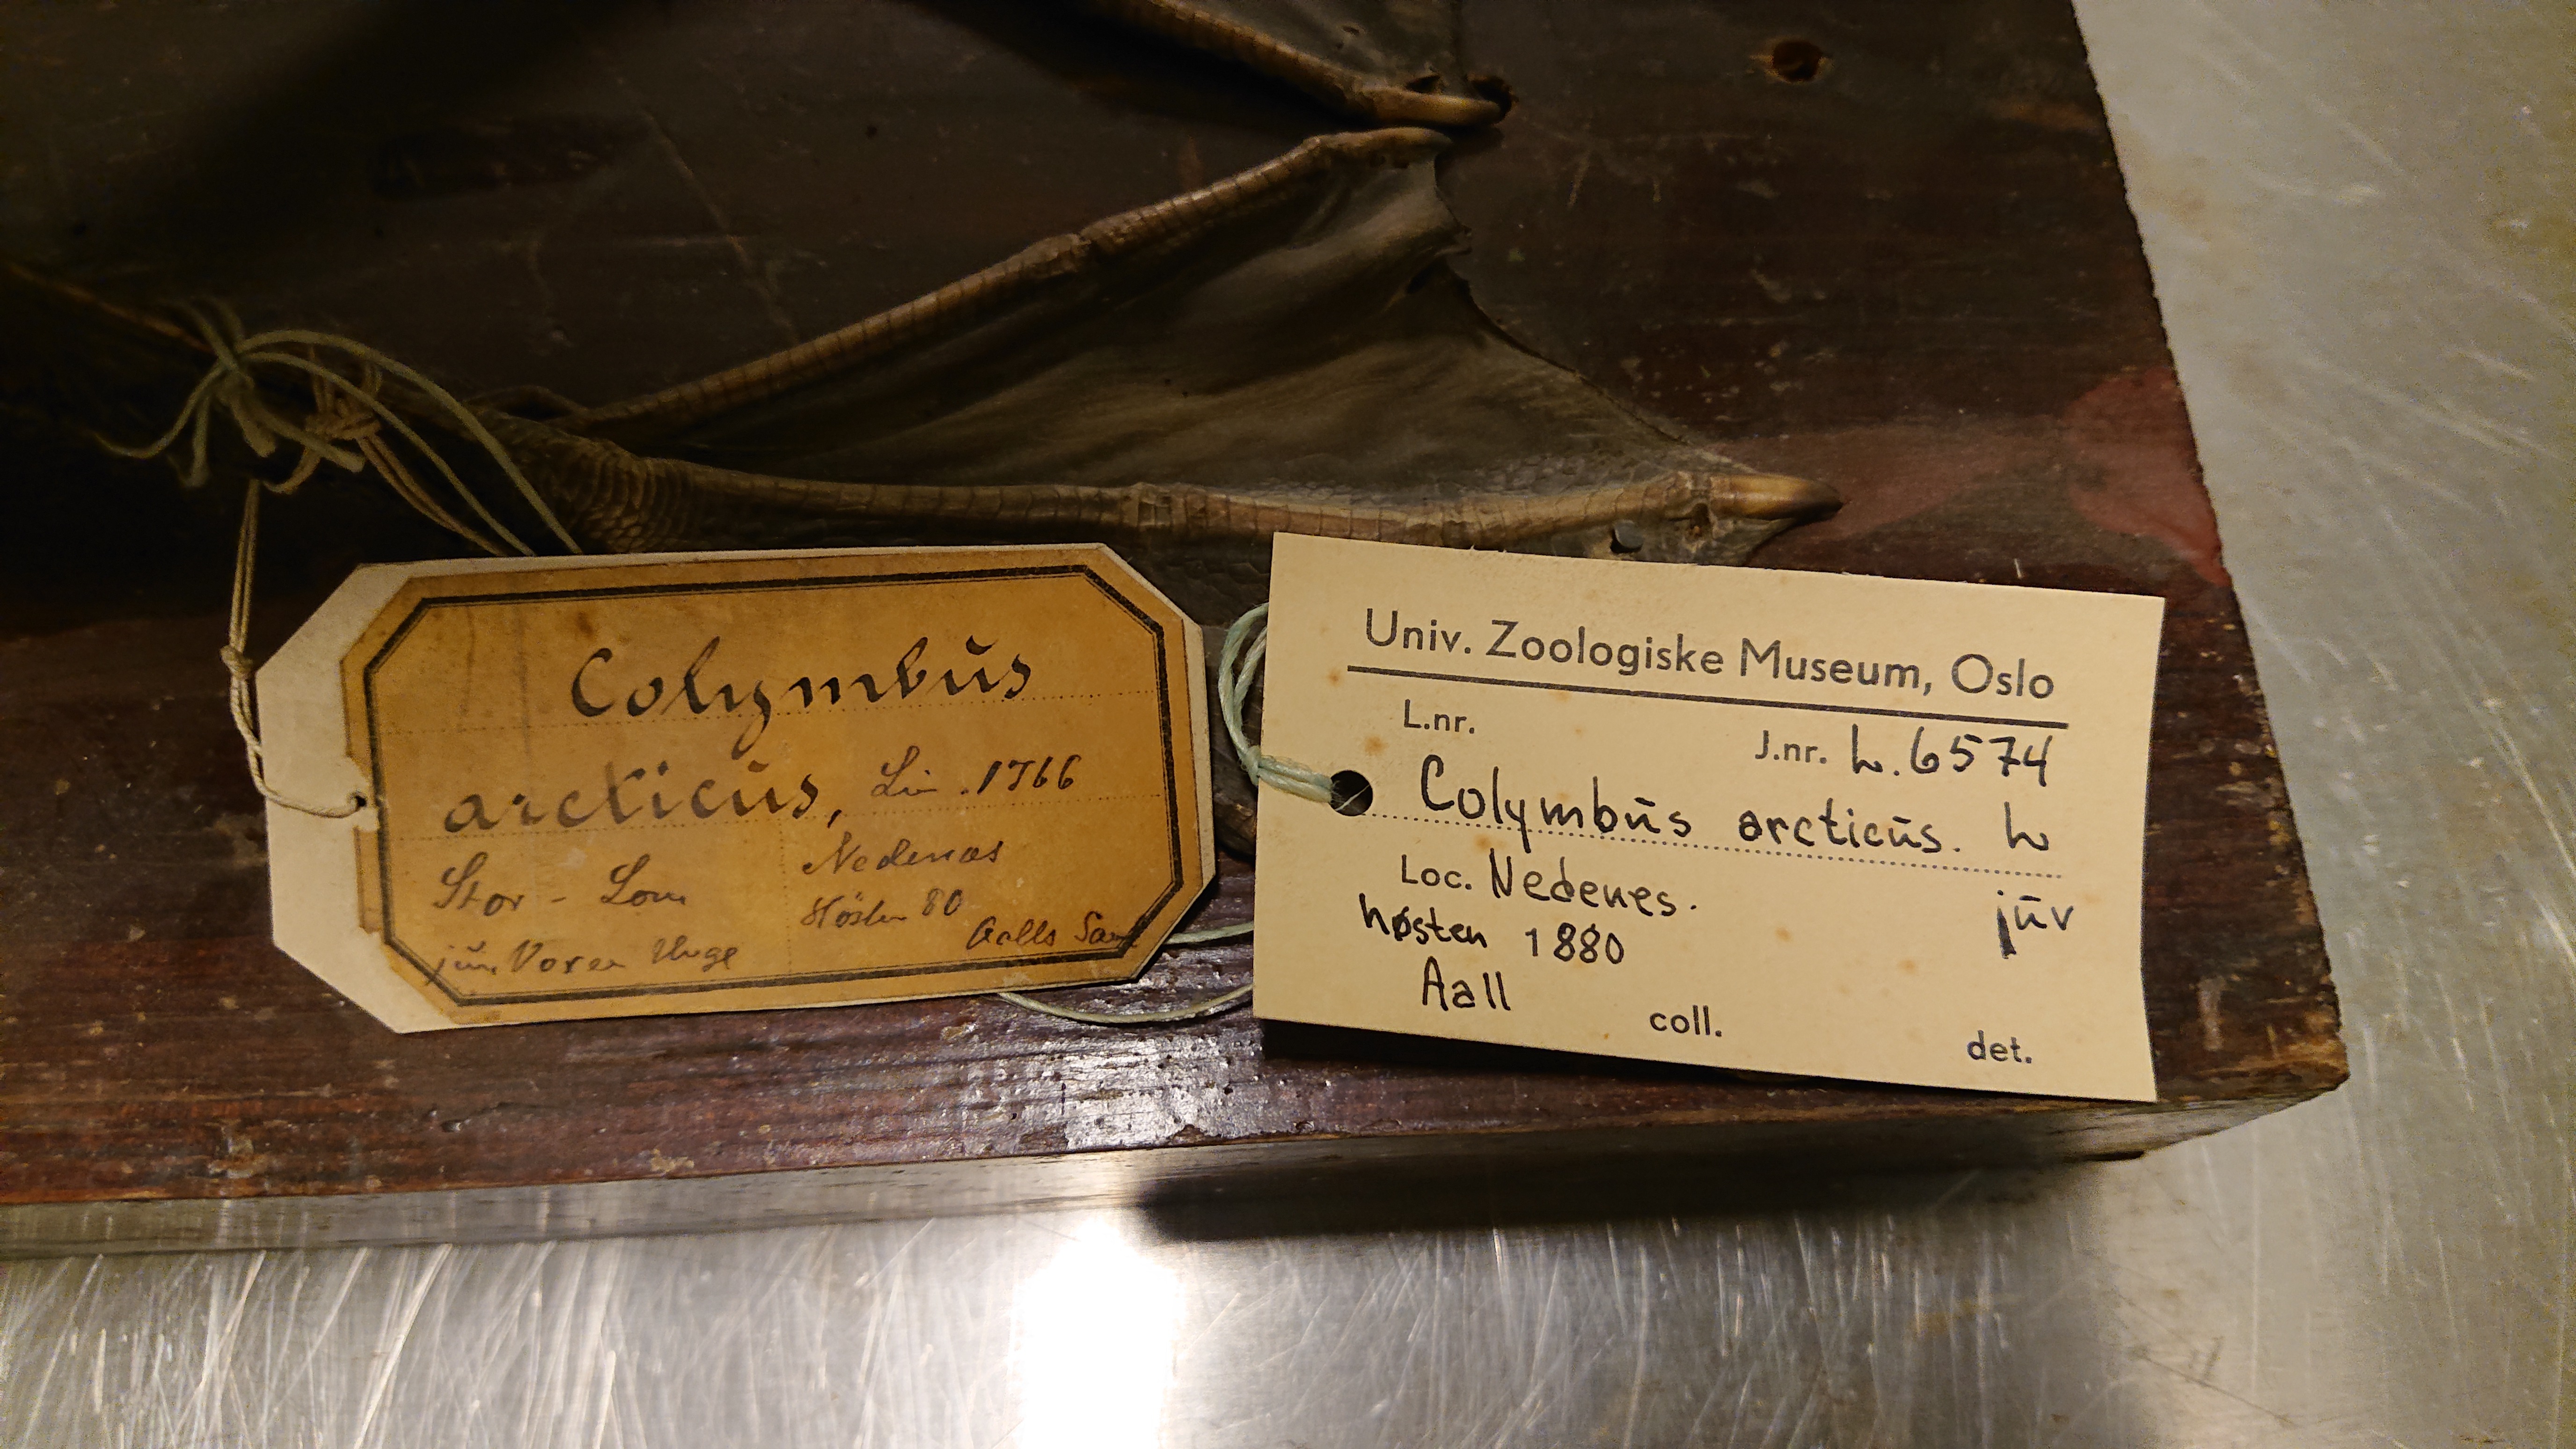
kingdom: Animalia
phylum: Chordata
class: Aves
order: Gaviiformes
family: Gaviidae
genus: Gavia
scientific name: Gavia arctica
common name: Black-throated loon
